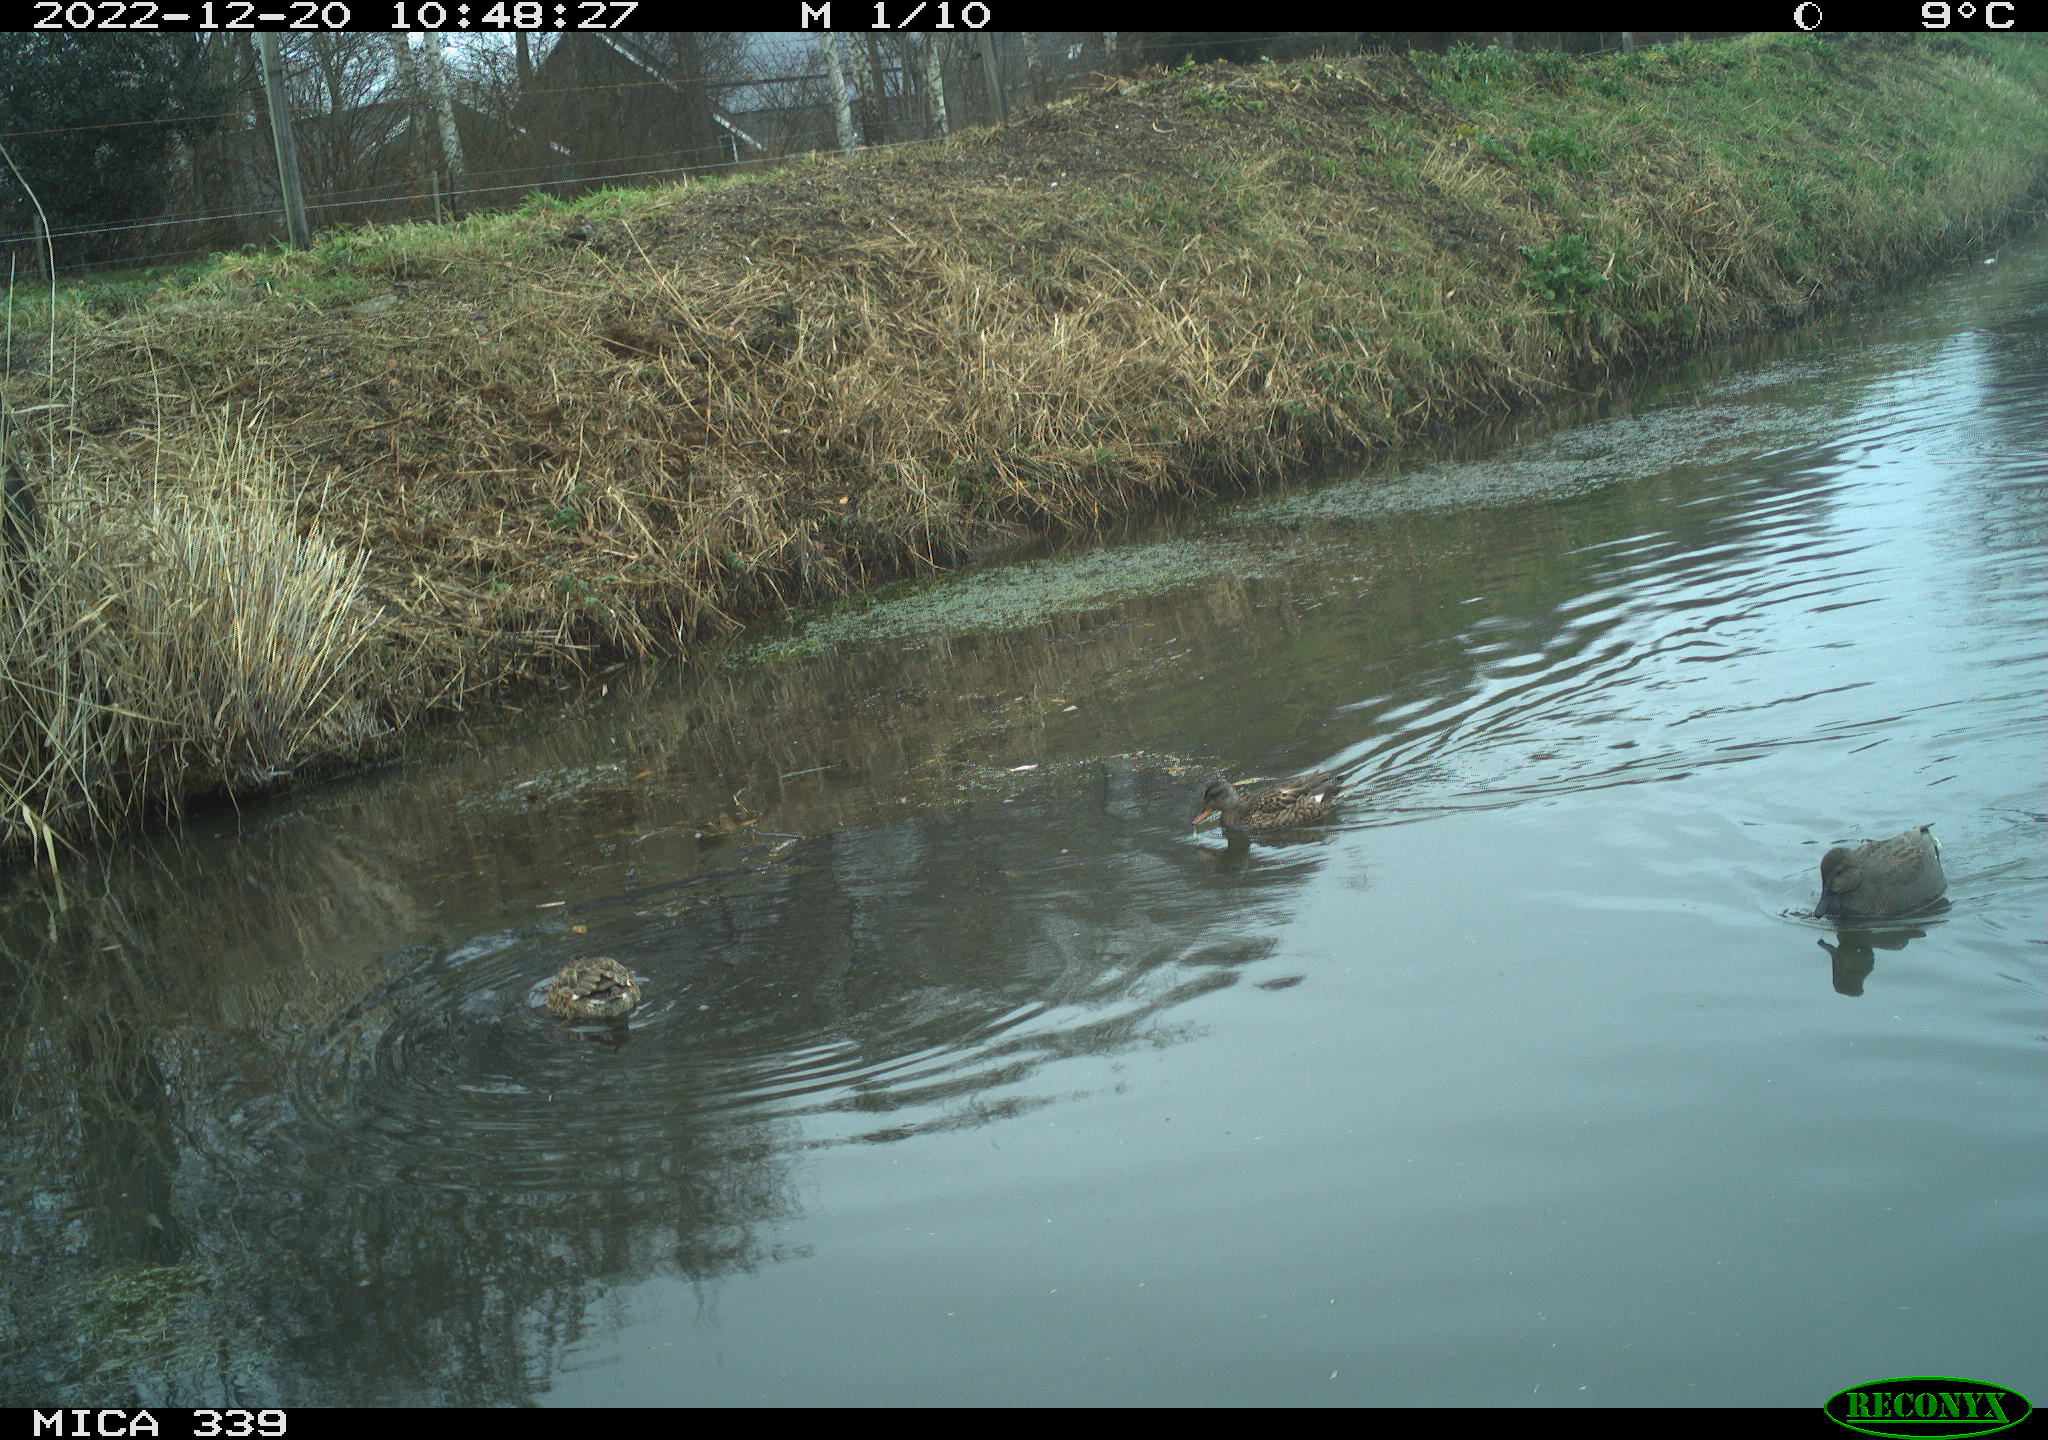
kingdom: Animalia
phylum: Chordata
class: Aves
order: Anseriformes
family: Anatidae
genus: Anas
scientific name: Anas
